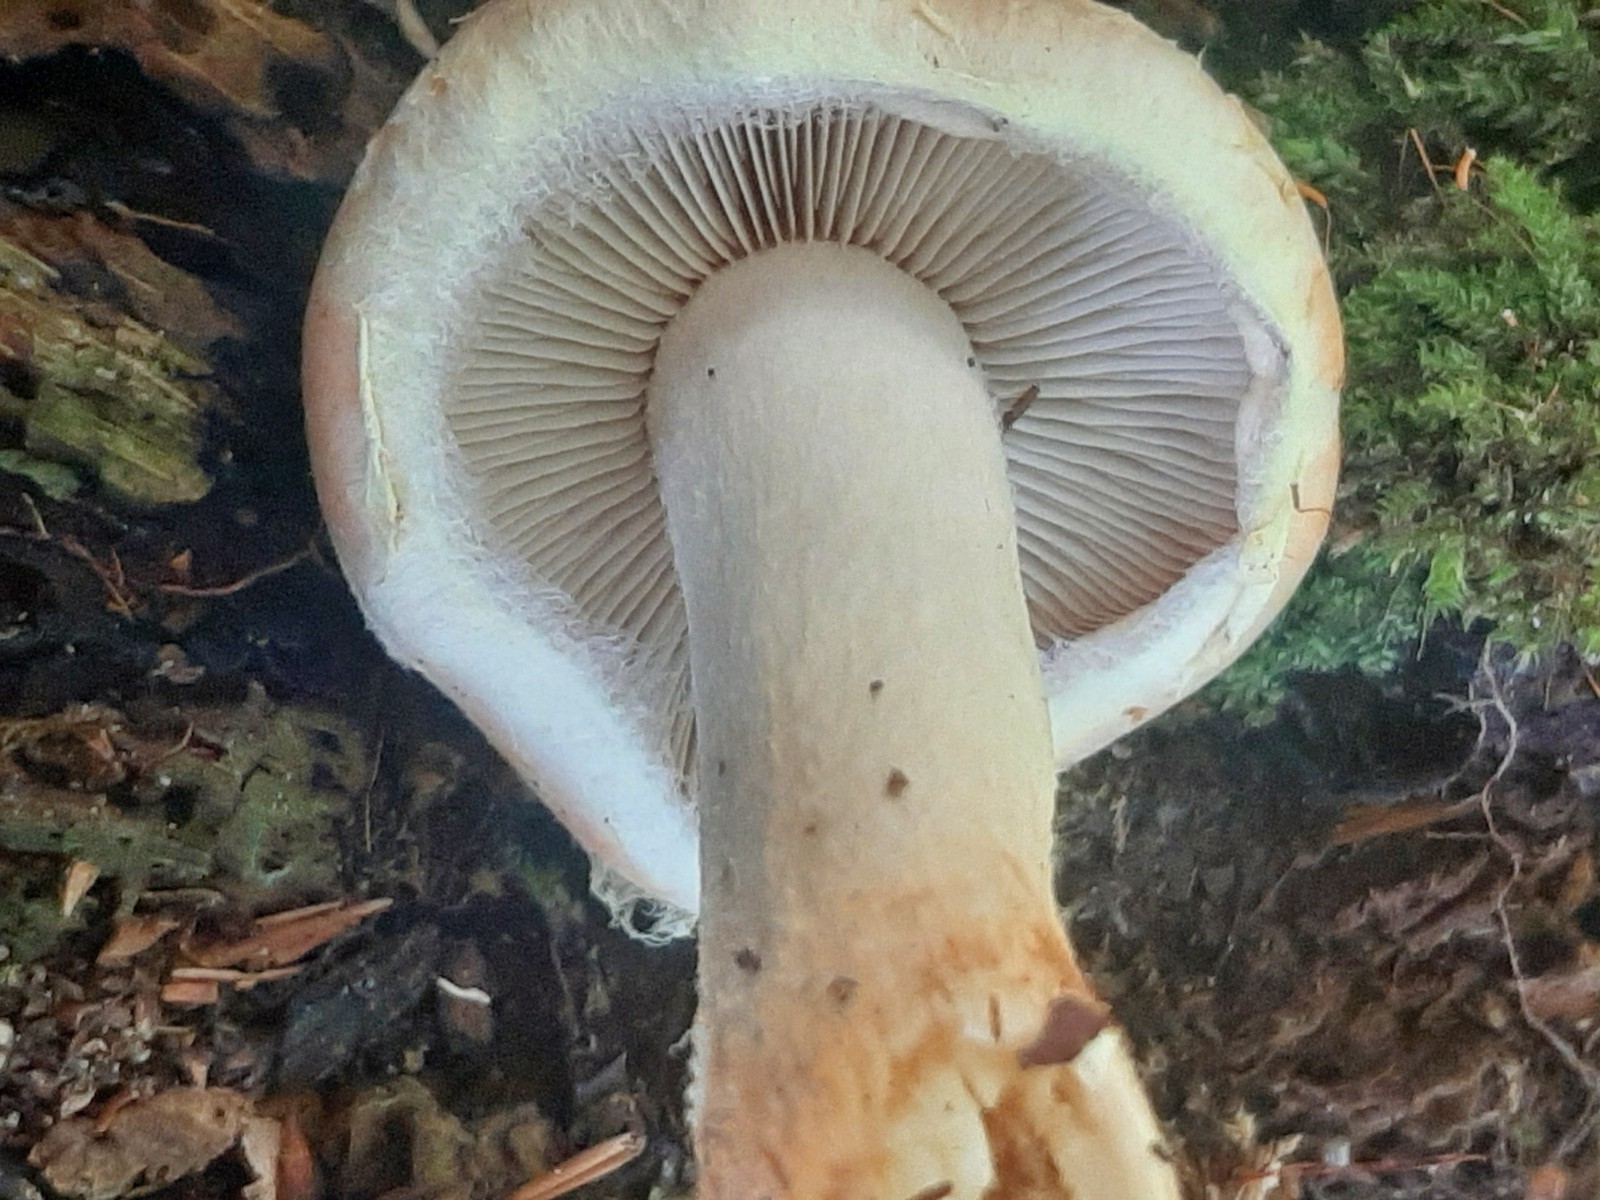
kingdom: Fungi
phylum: Basidiomycota
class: Agaricomycetes
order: Agaricales
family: Strophariaceae
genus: Hypholoma
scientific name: Hypholoma lateritium
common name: teglrød svovlhat
